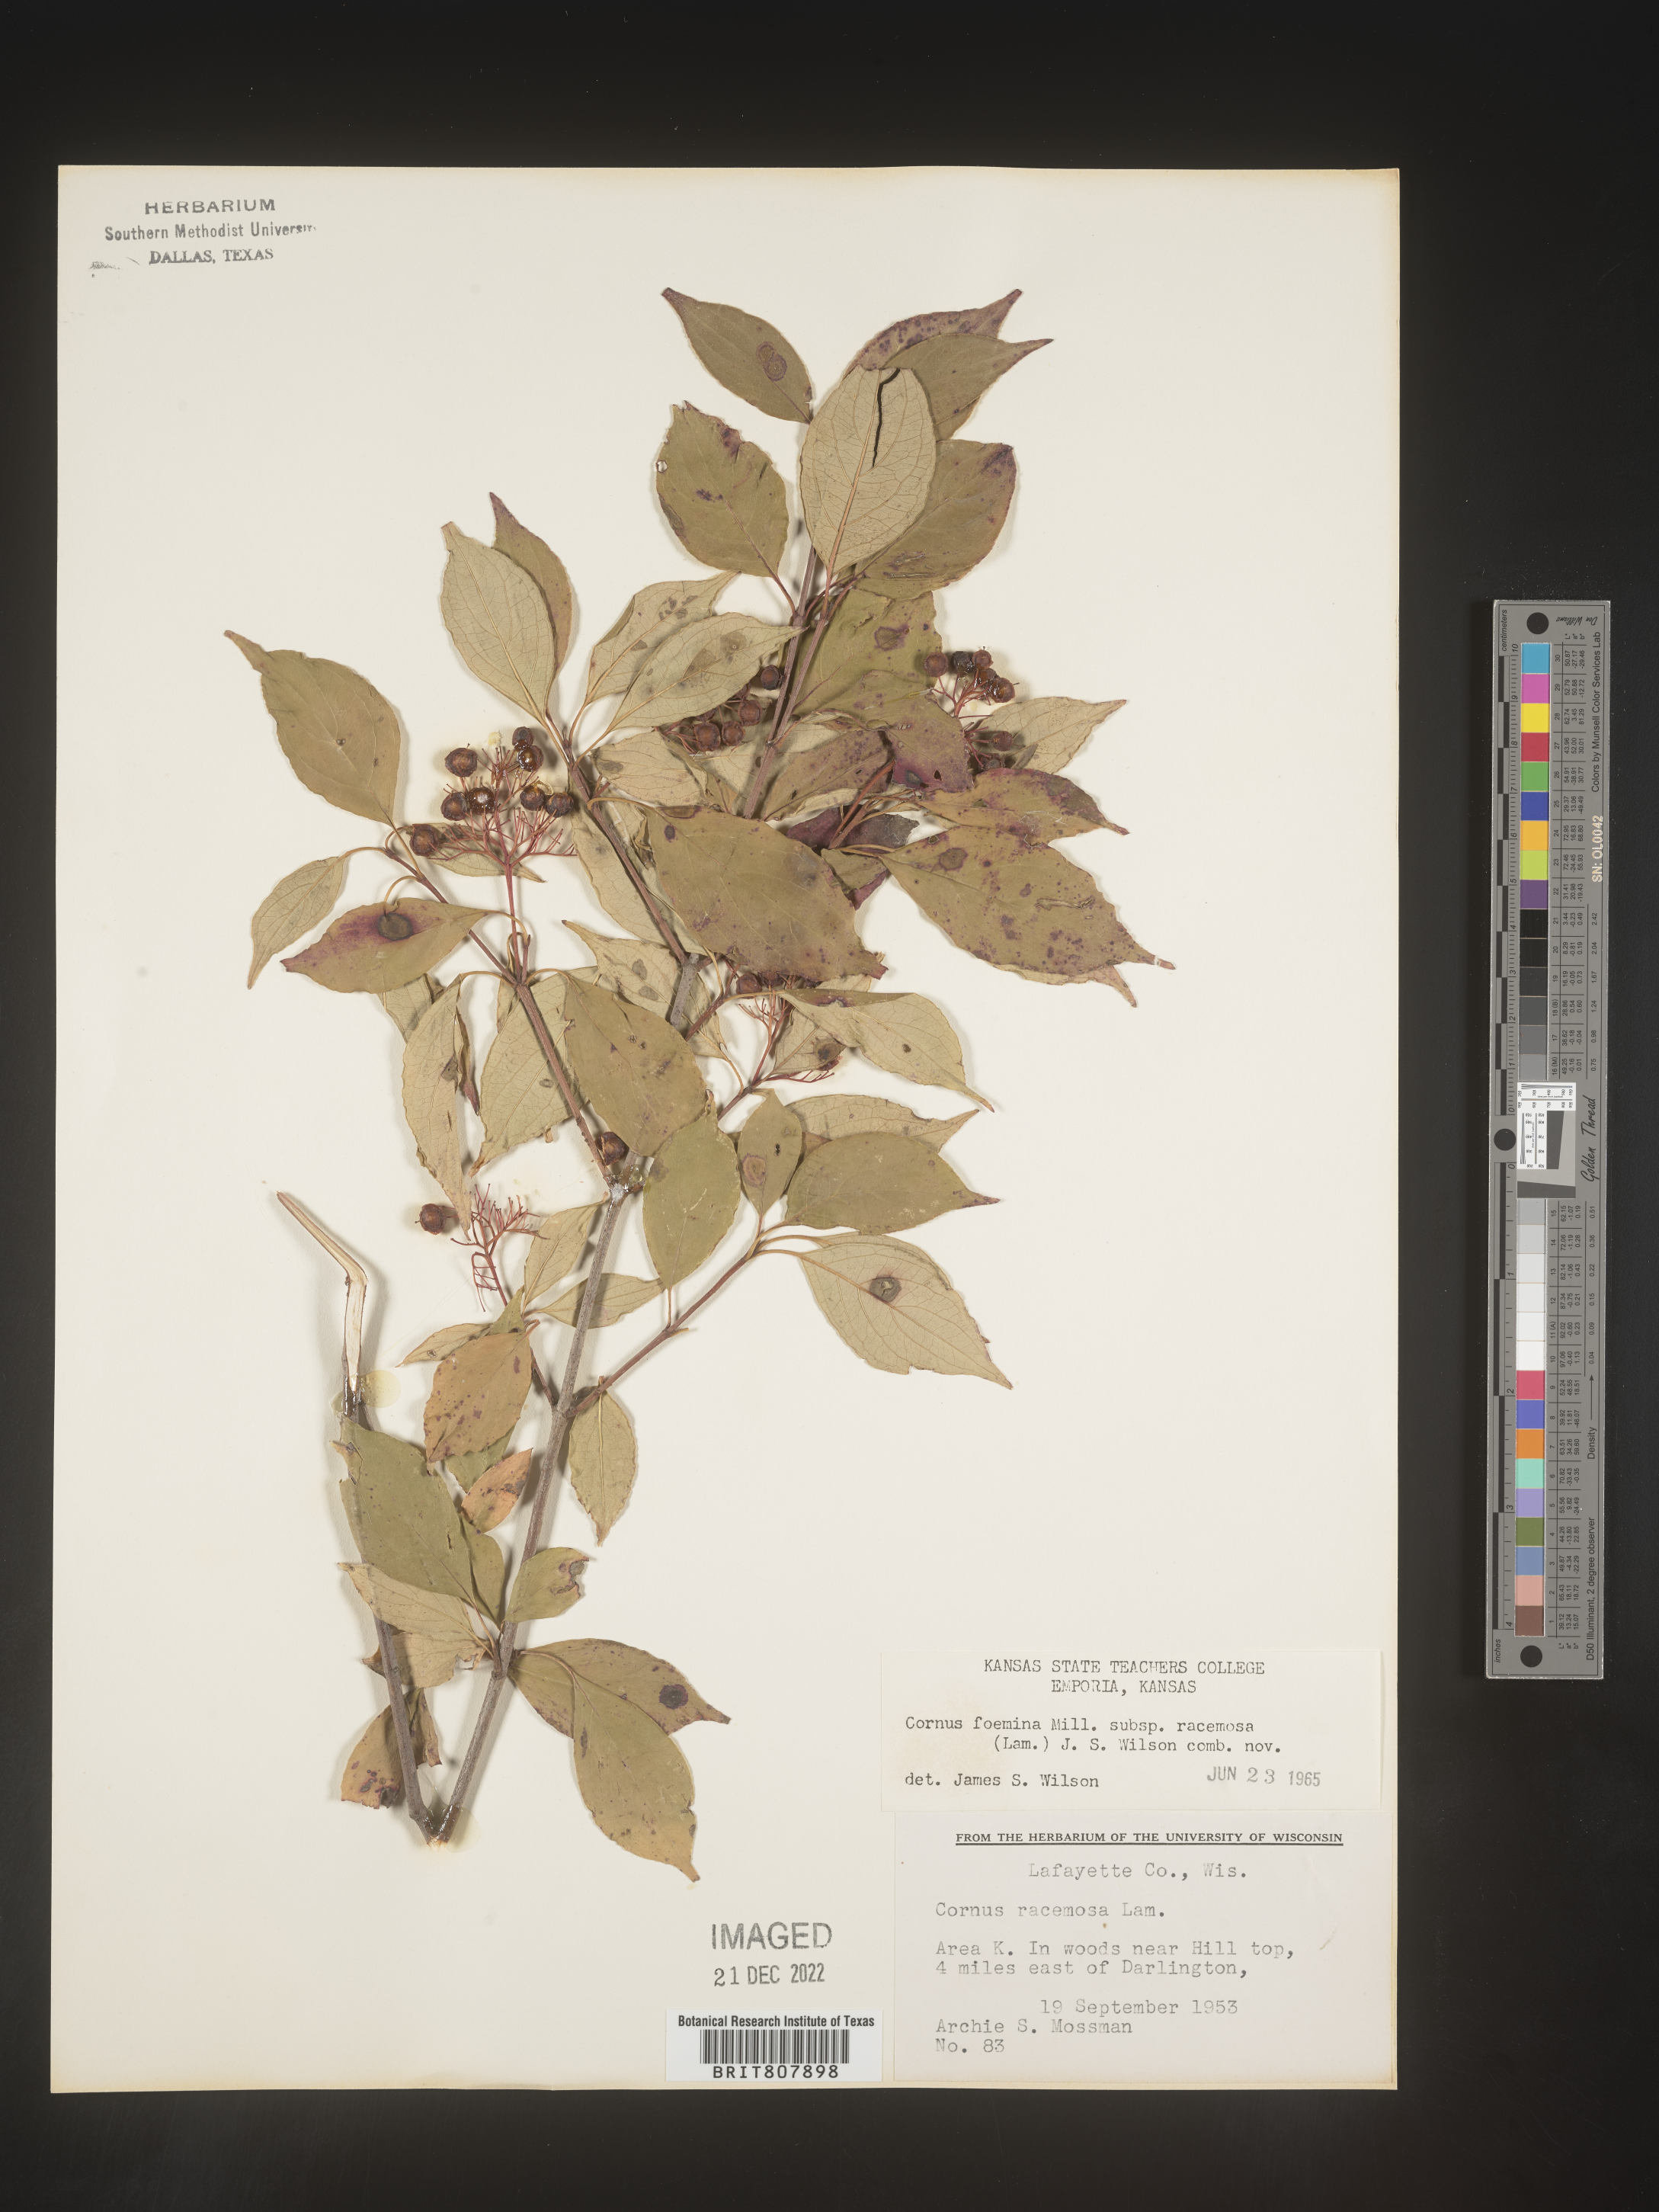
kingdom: Plantae
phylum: Tracheophyta
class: Magnoliopsida
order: Cornales
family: Cornaceae
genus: Cornus
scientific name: Cornus racemosa
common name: Panicled dogwood
